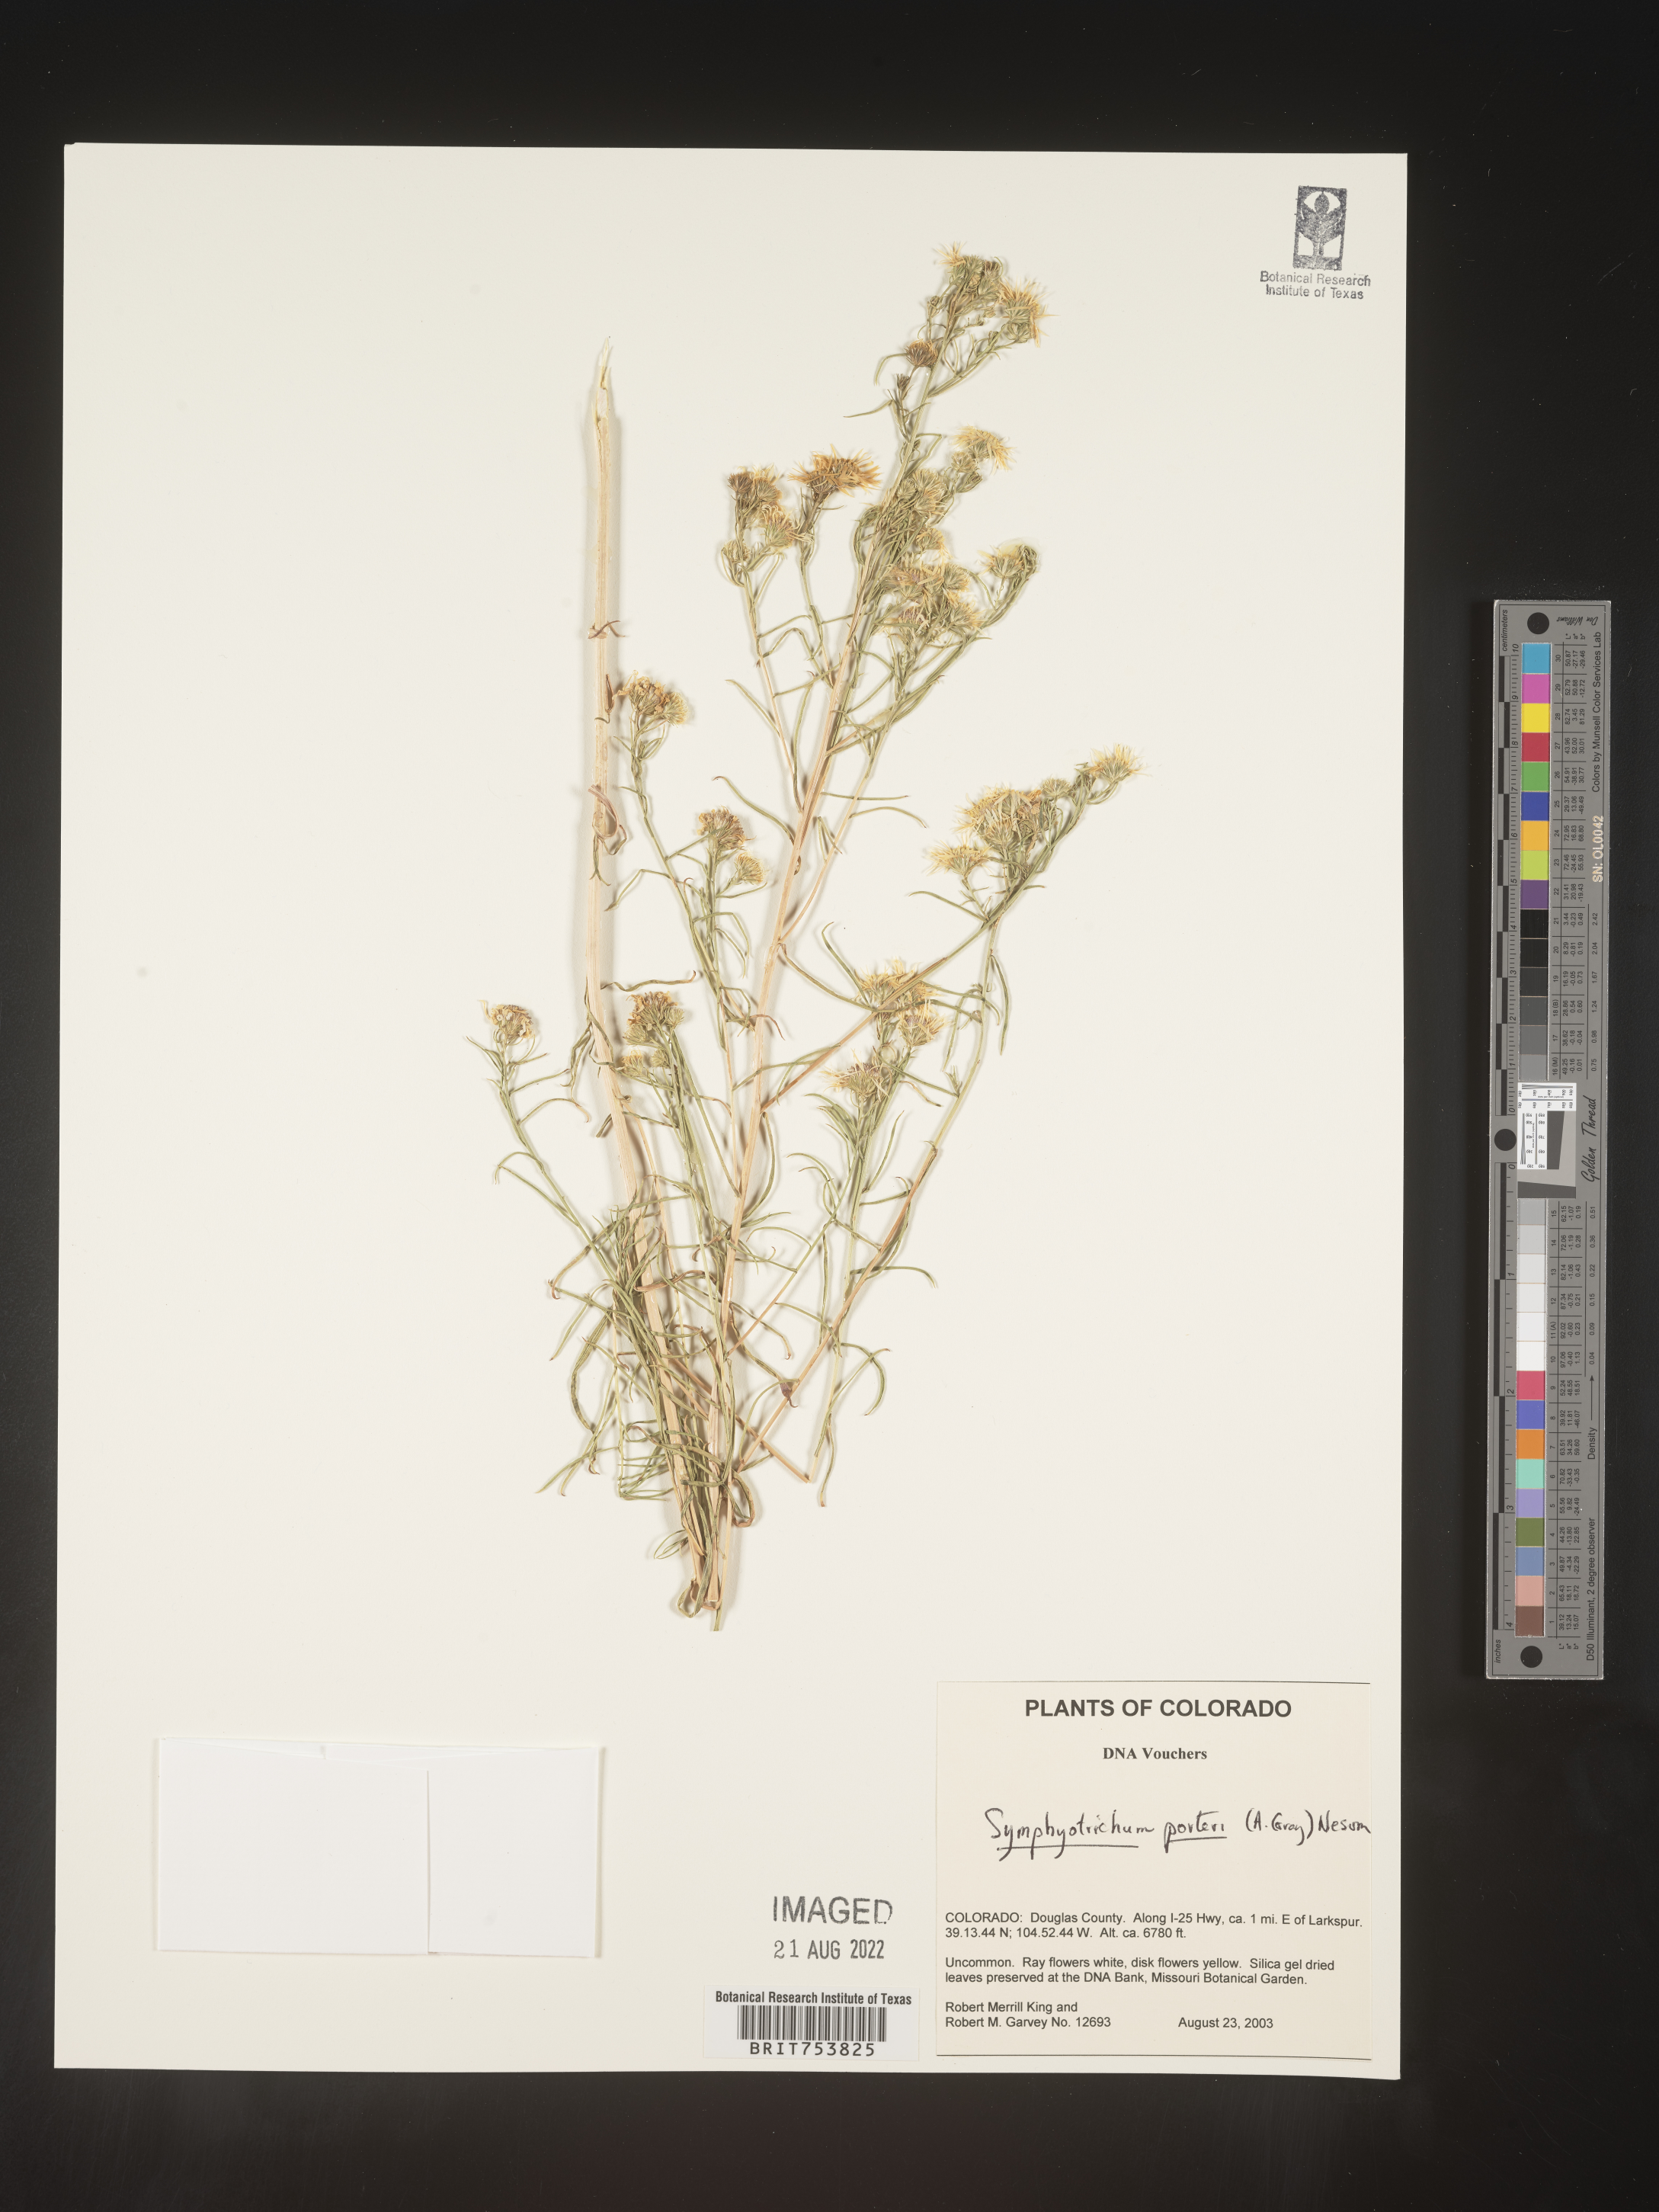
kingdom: Plantae
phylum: Tracheophyta
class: Magnoliopsida
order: Asterales
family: Asteraceae
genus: Symphyotrichum
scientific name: Symphyotrichum porteri
